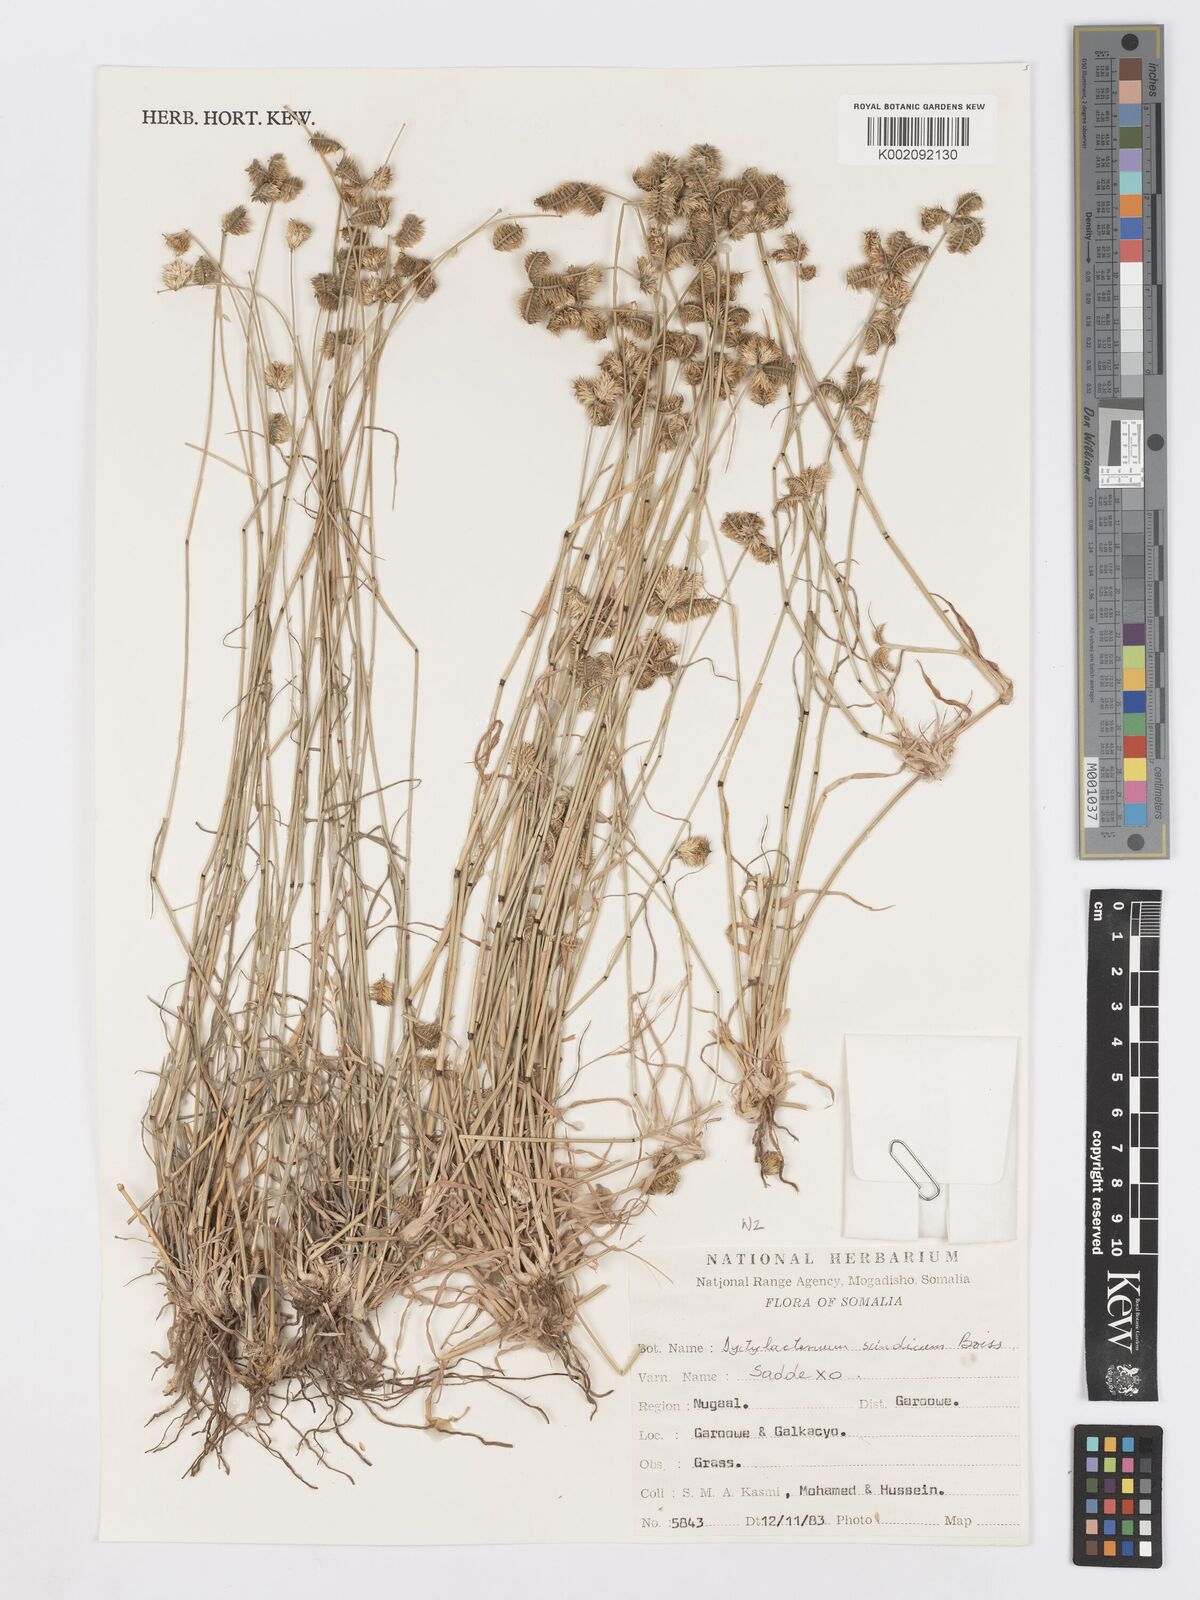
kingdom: Plantae
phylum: Tracheophyta
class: Liliopsida
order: Poales
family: Poaceae
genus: Dactyloctenium
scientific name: Dactyloctenium scindicum
